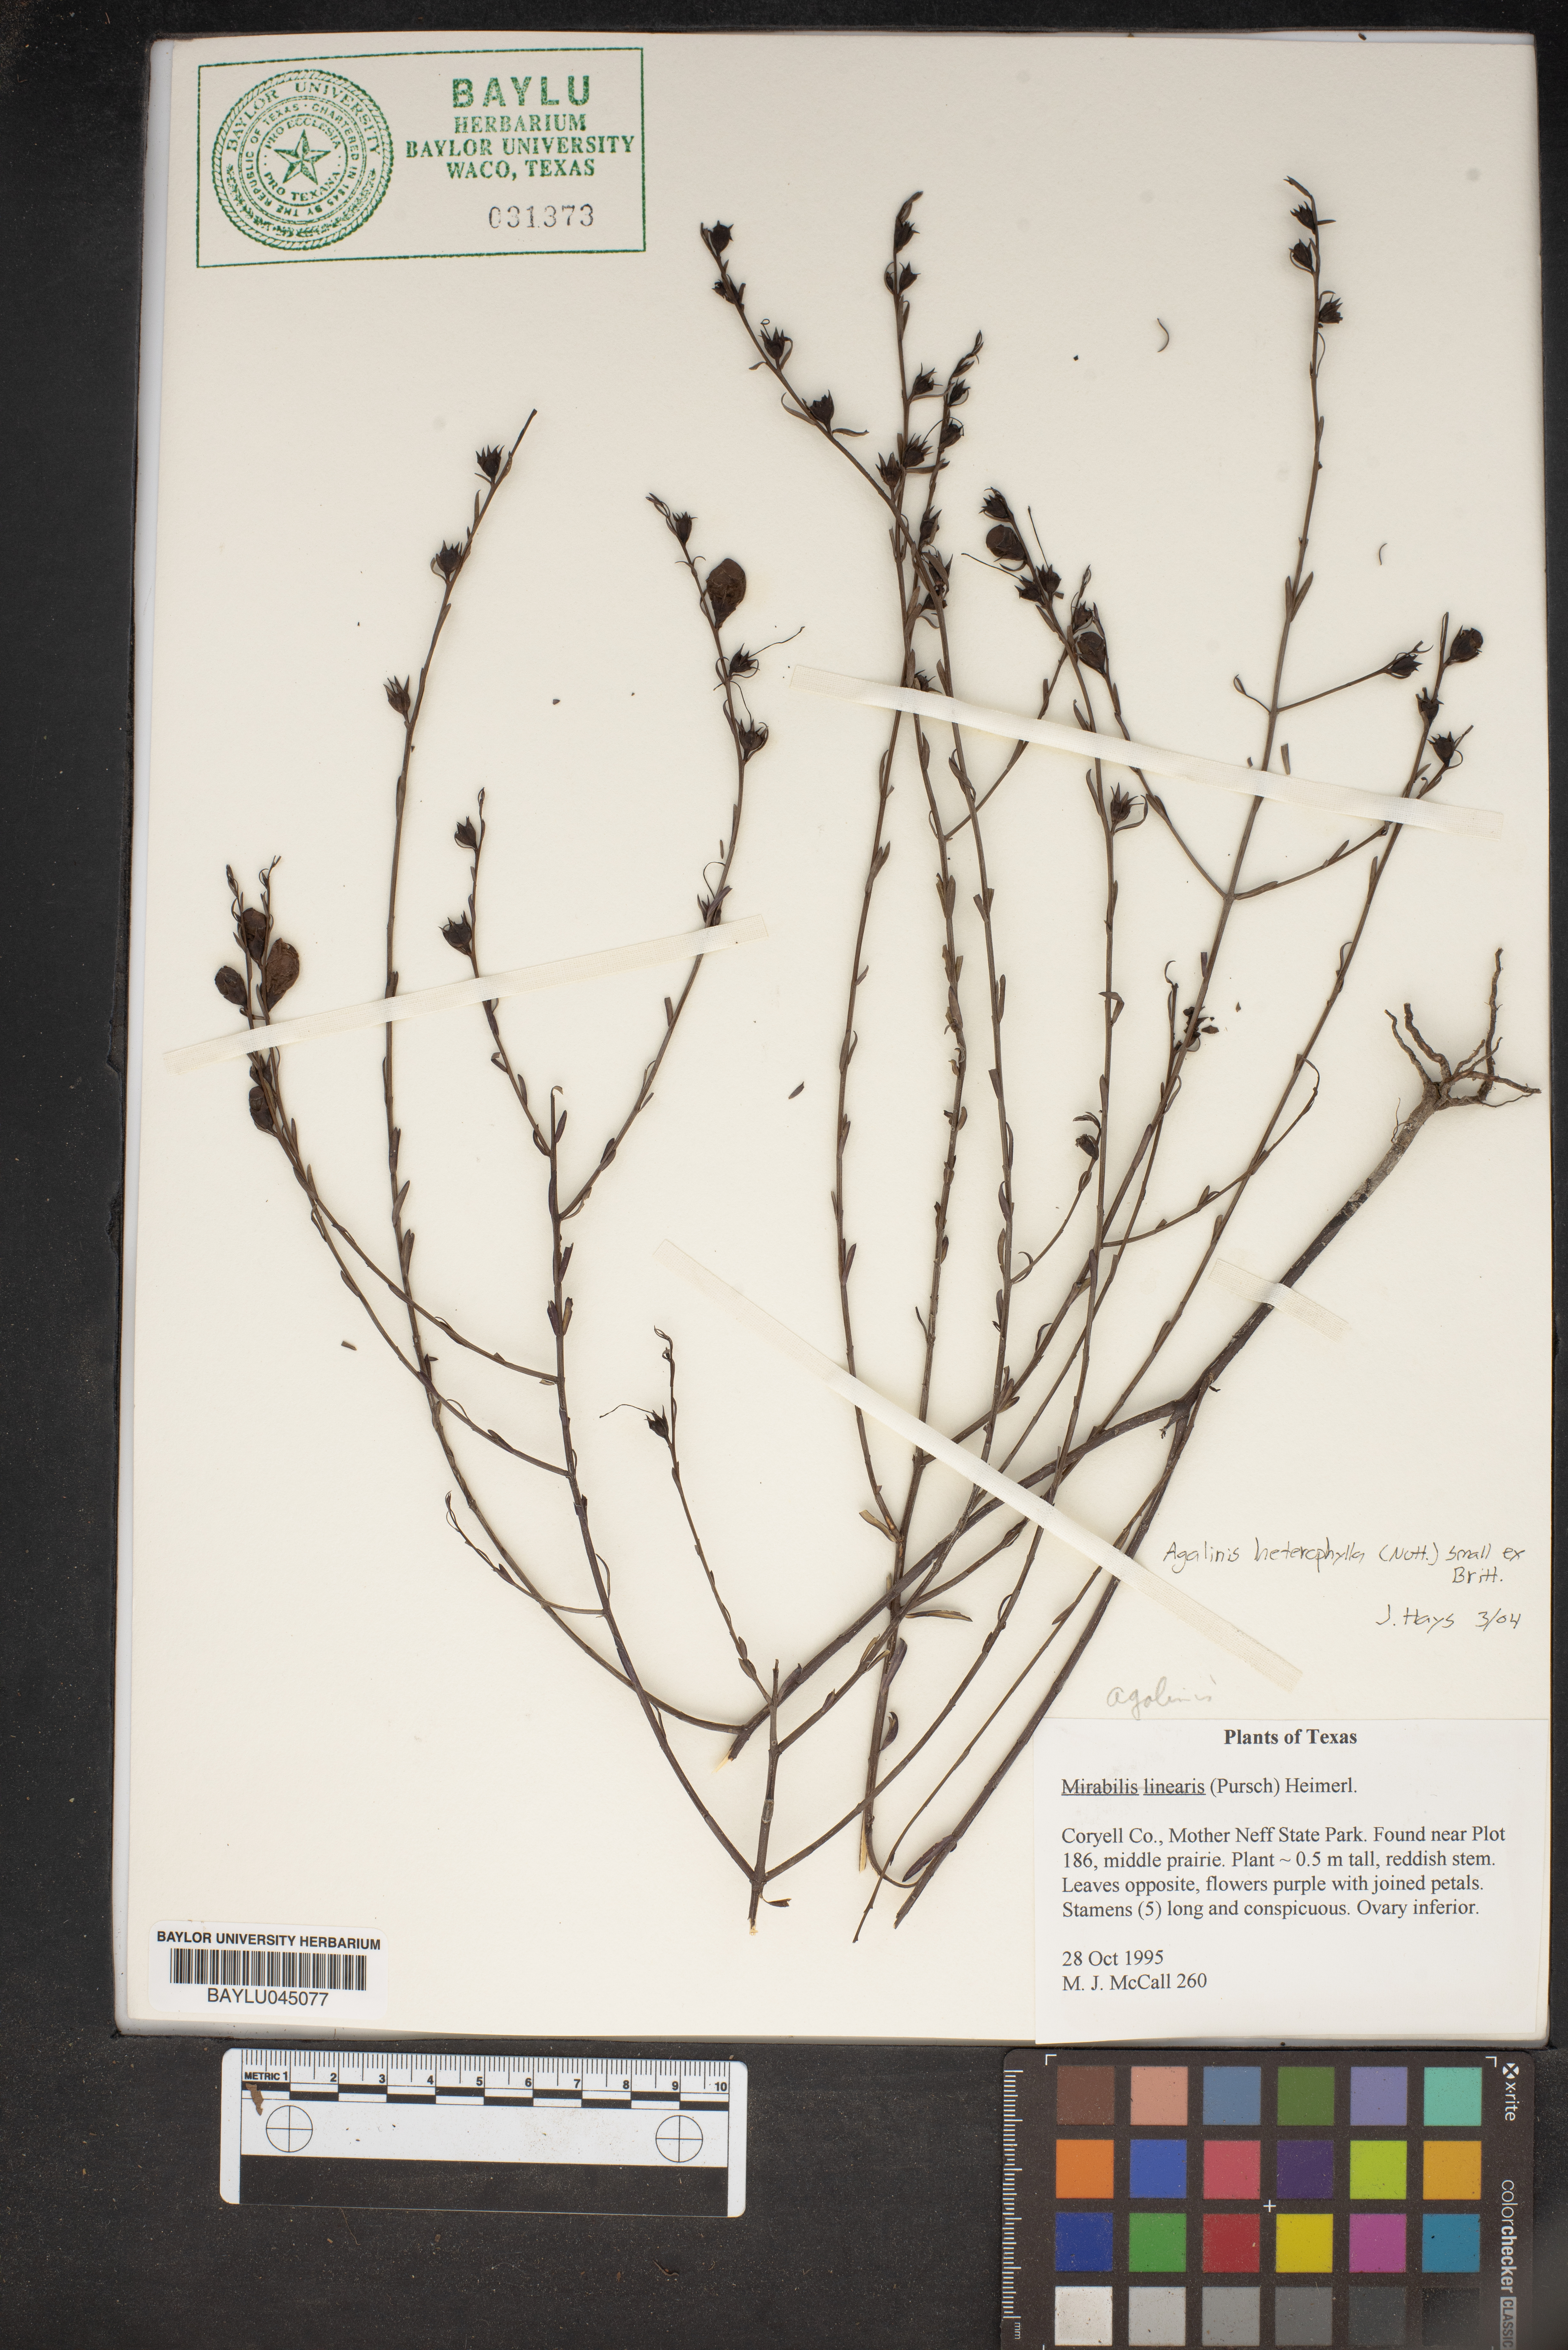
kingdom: Plantae
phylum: Tracheophyta
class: Magnoliopsida
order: Lamiales
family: Orobanchaceae
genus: Agalinis
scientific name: Agalinis heterophylla
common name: Prairie agalinis
